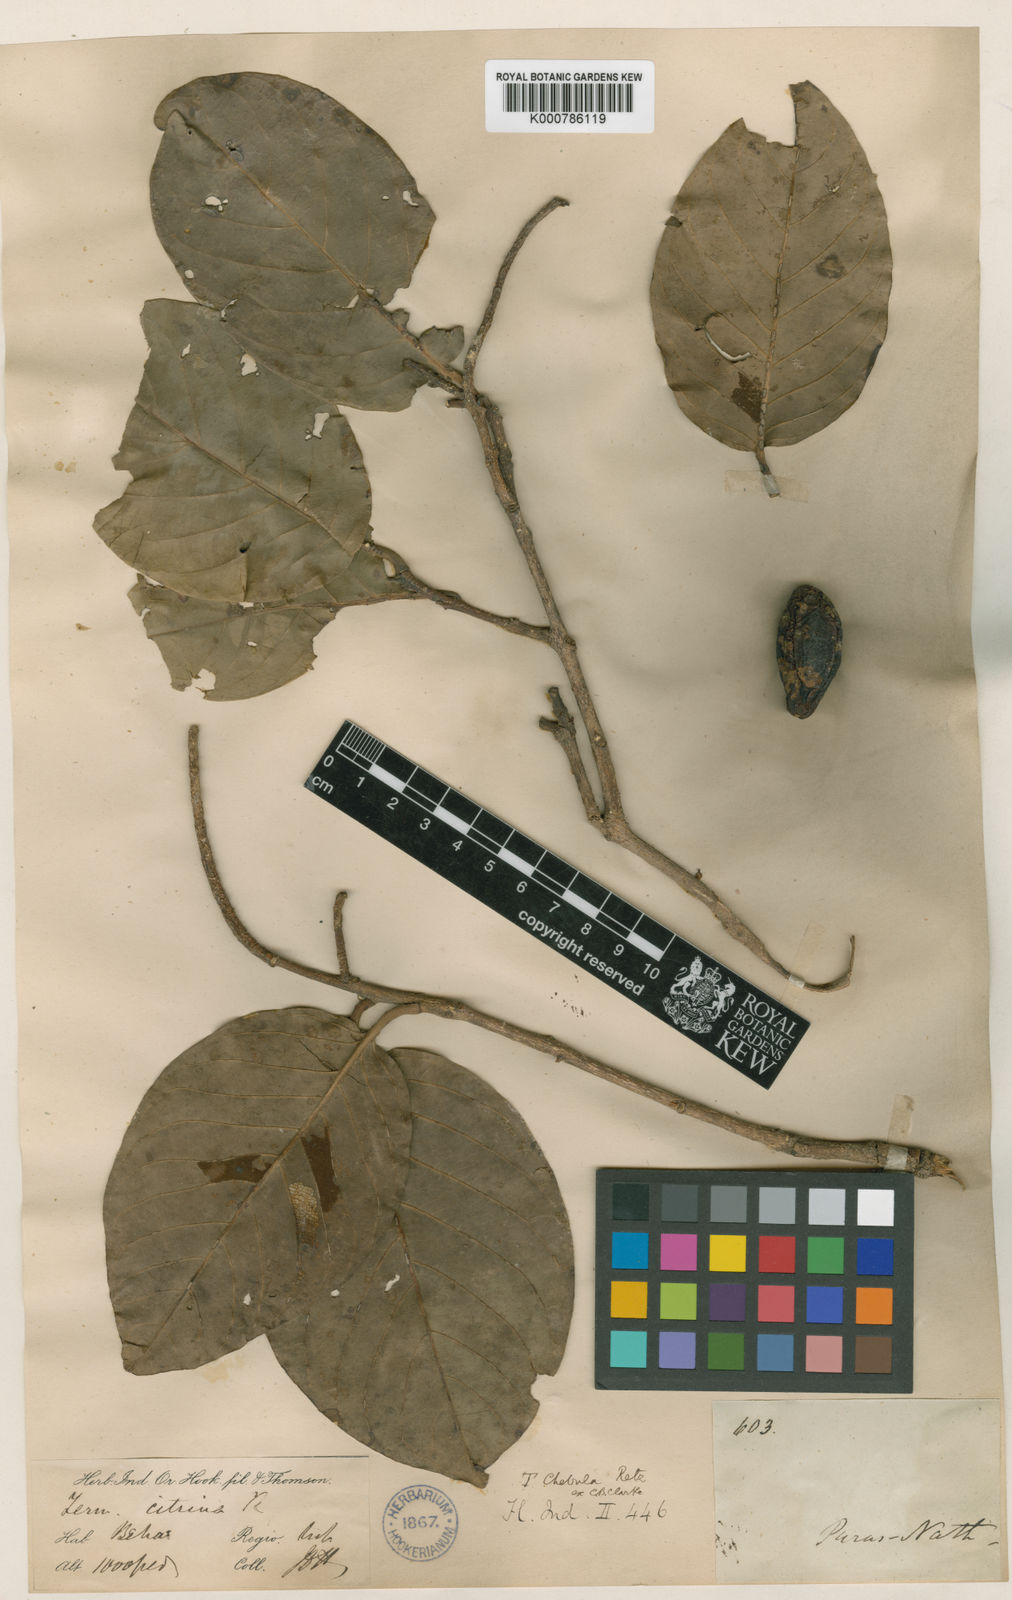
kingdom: Plantae
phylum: Tracheophyta
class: Magnoliopsida
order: Myrtales
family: Combretaceae
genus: Terminalia
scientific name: Terminalia chebula
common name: Myrobalan
